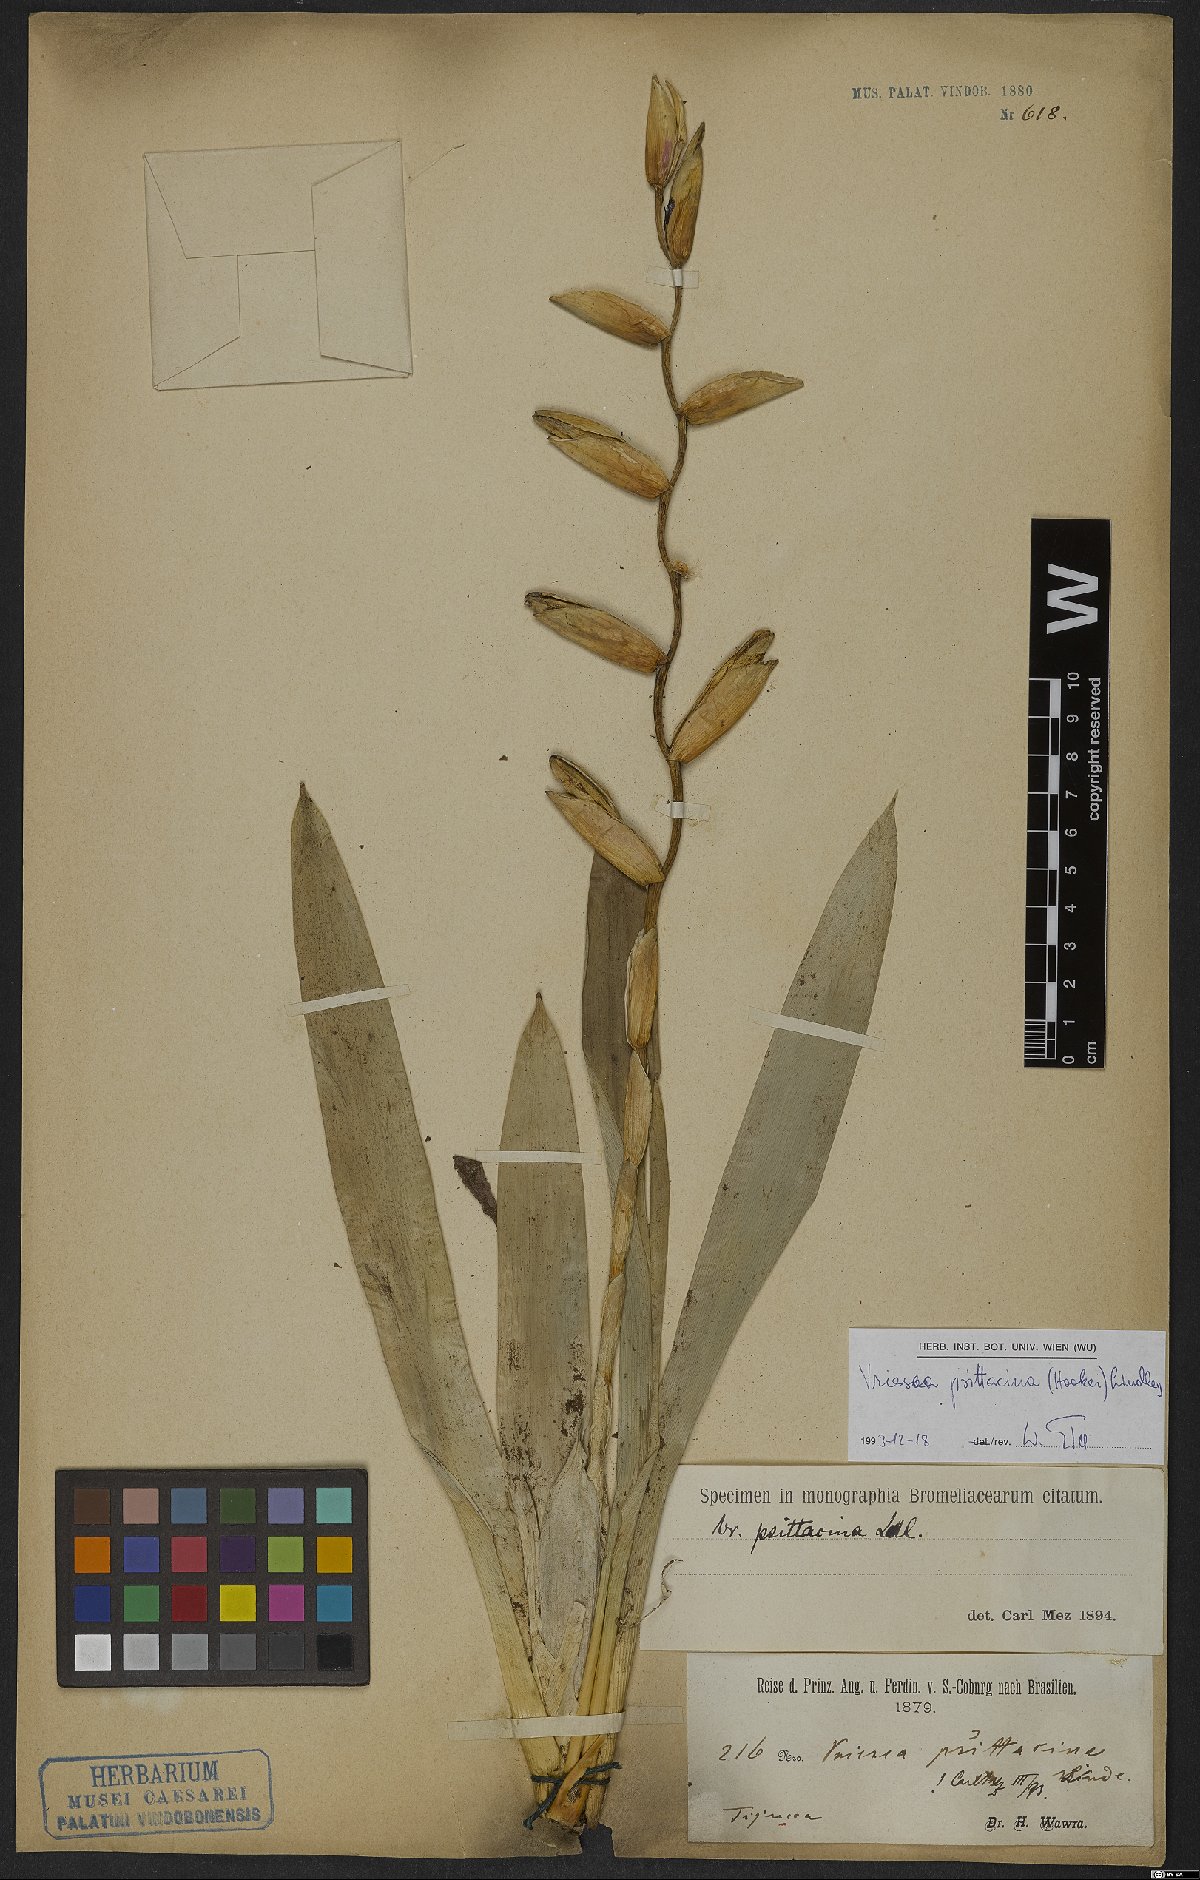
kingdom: Plantae
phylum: Tracheophyta
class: Liliopsida
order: Poales
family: Bromeliaceae
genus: Vriesea
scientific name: Vriesea psittacina
